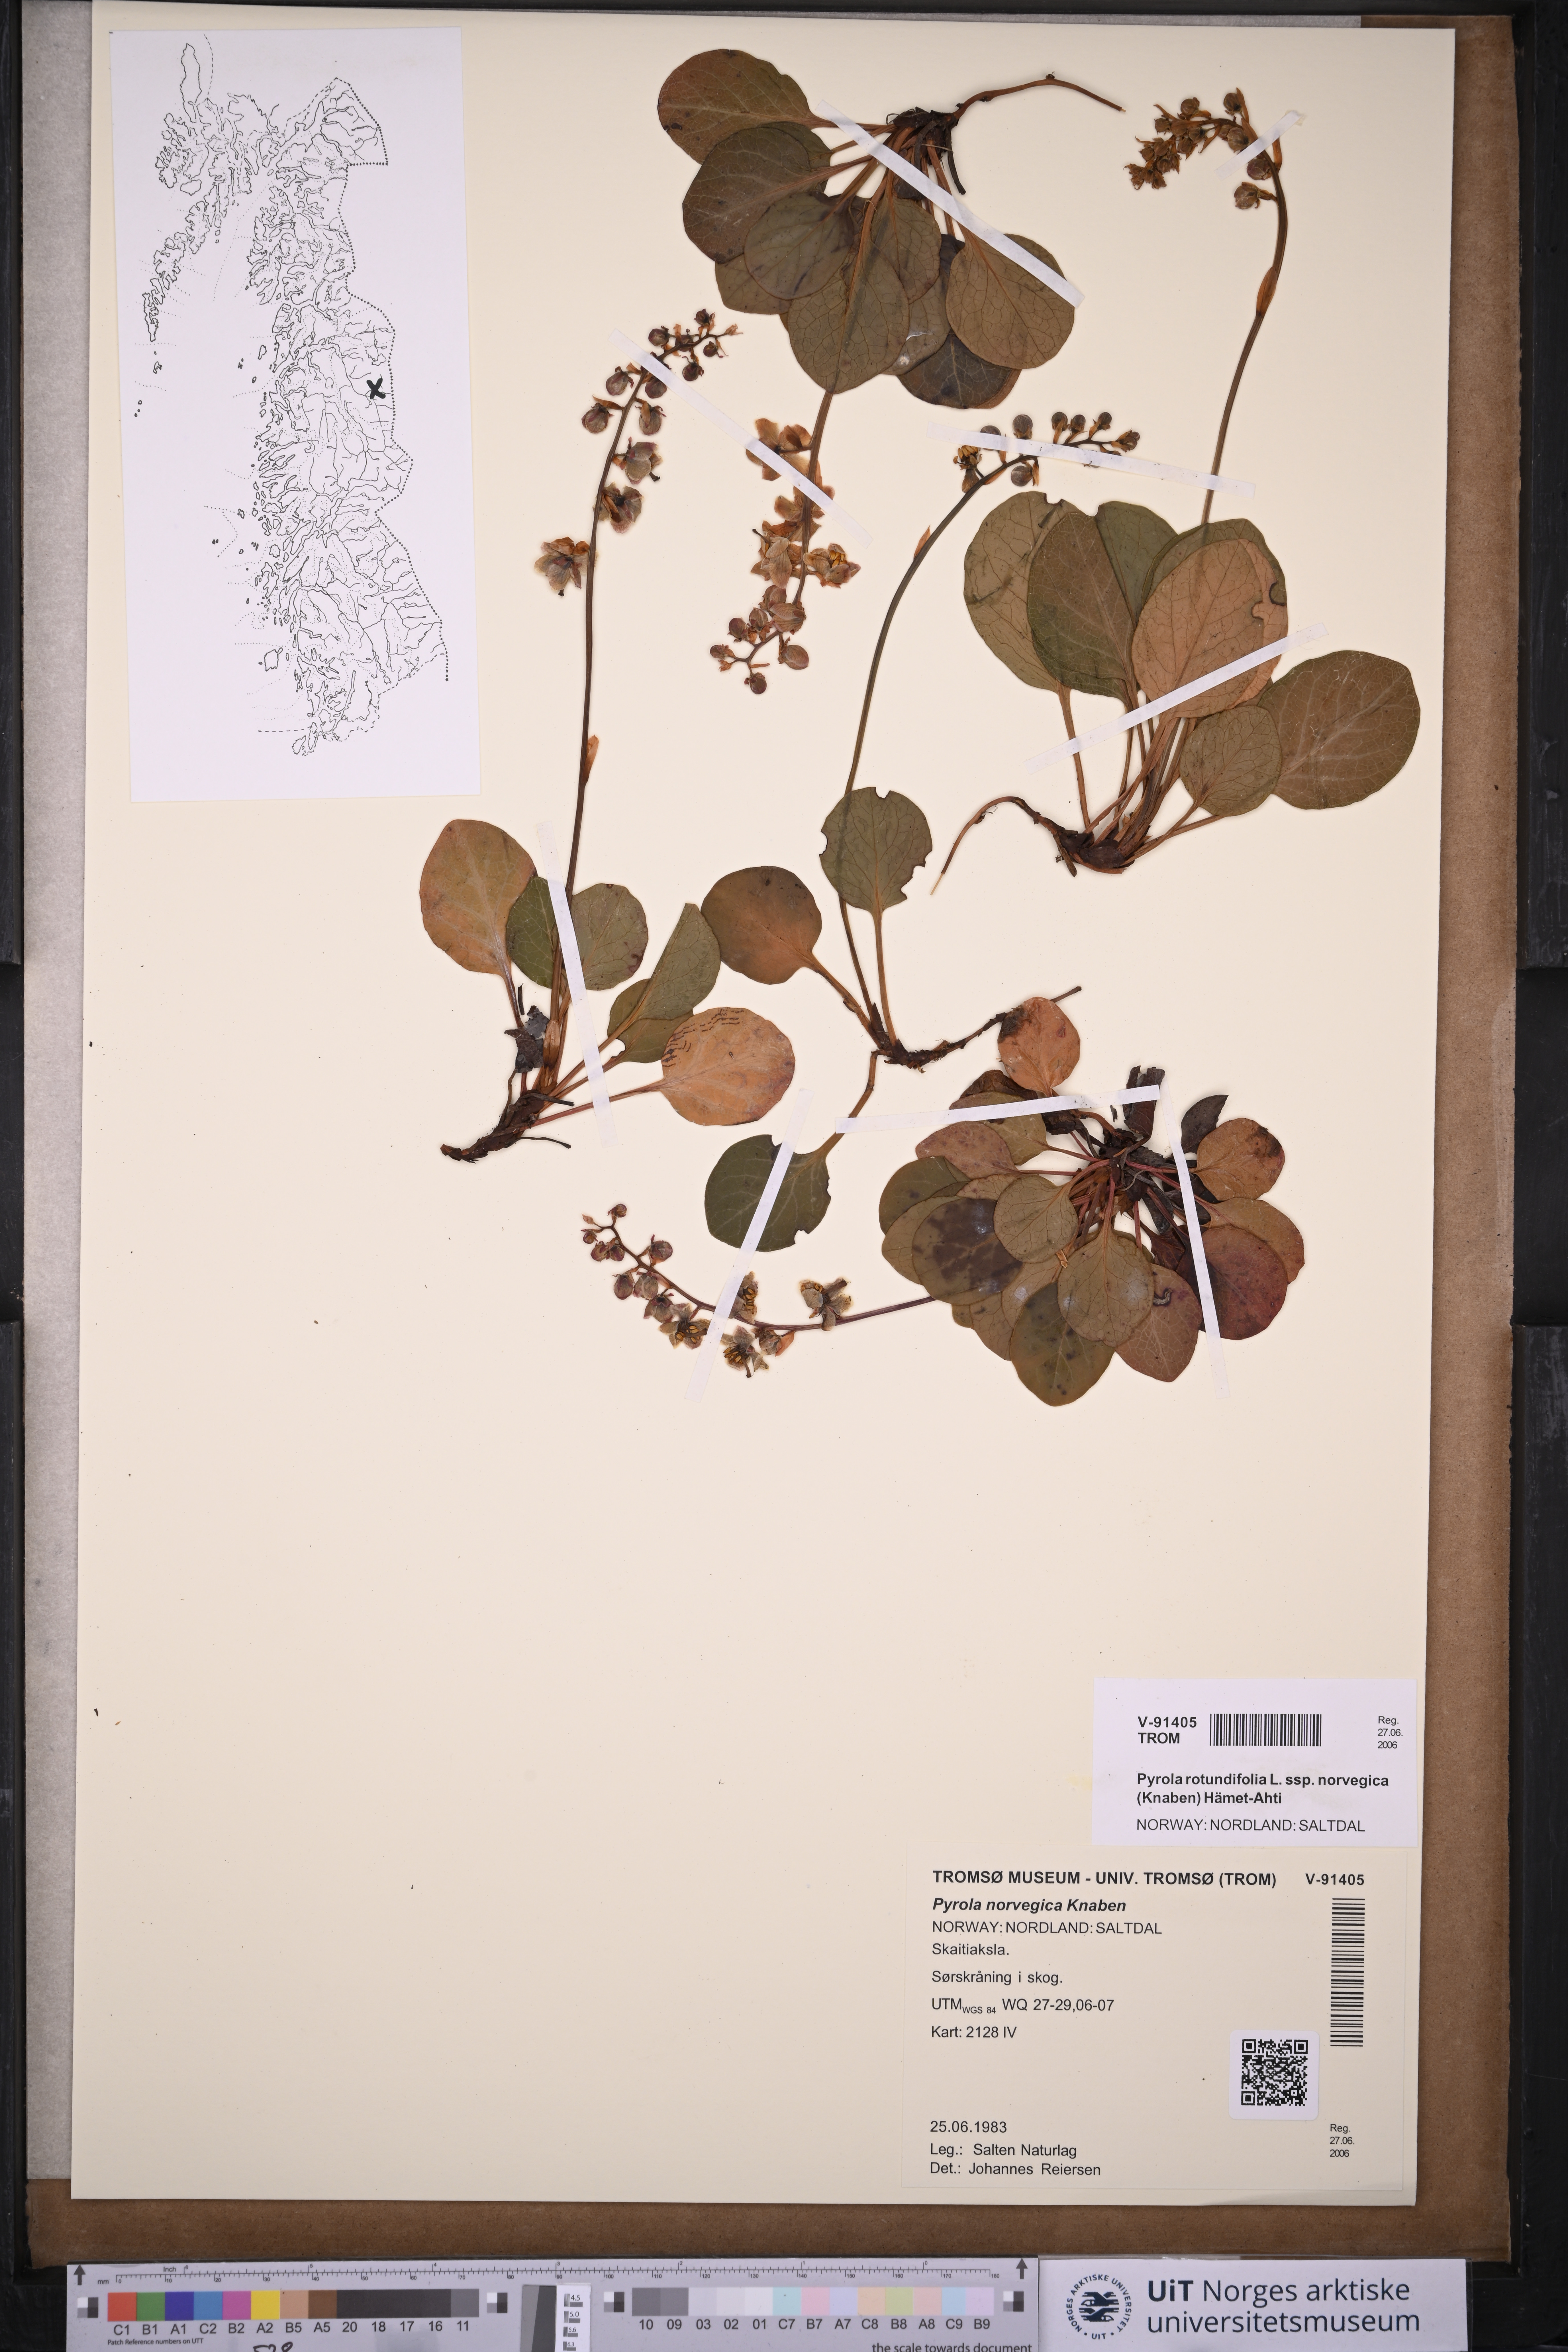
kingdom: Plantae
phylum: Tracheophyta
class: Magnoliopsida
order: Ericales
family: Ericaceae
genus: Pyrola
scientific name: Pyrola rotundifolia
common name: Round-leaved wintergreen
